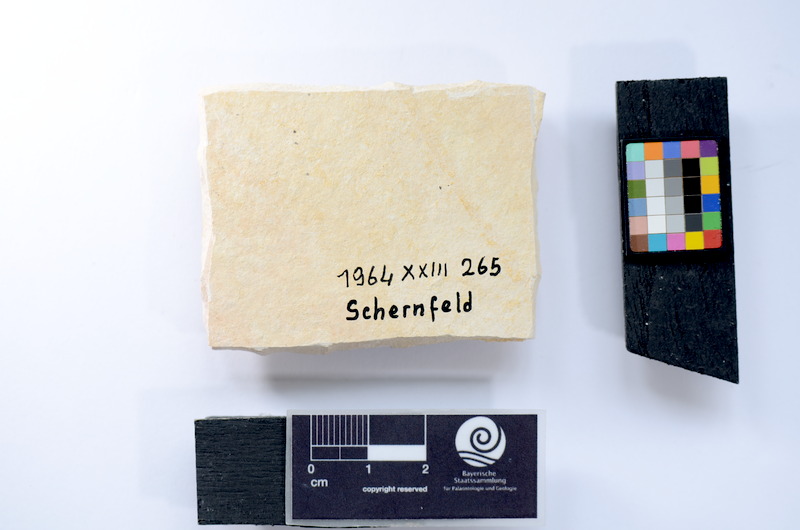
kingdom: Animalia
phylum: Chordata
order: Salmoniformes
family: Orthogonikleithridae
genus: Leptolepides
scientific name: Leptolepides
